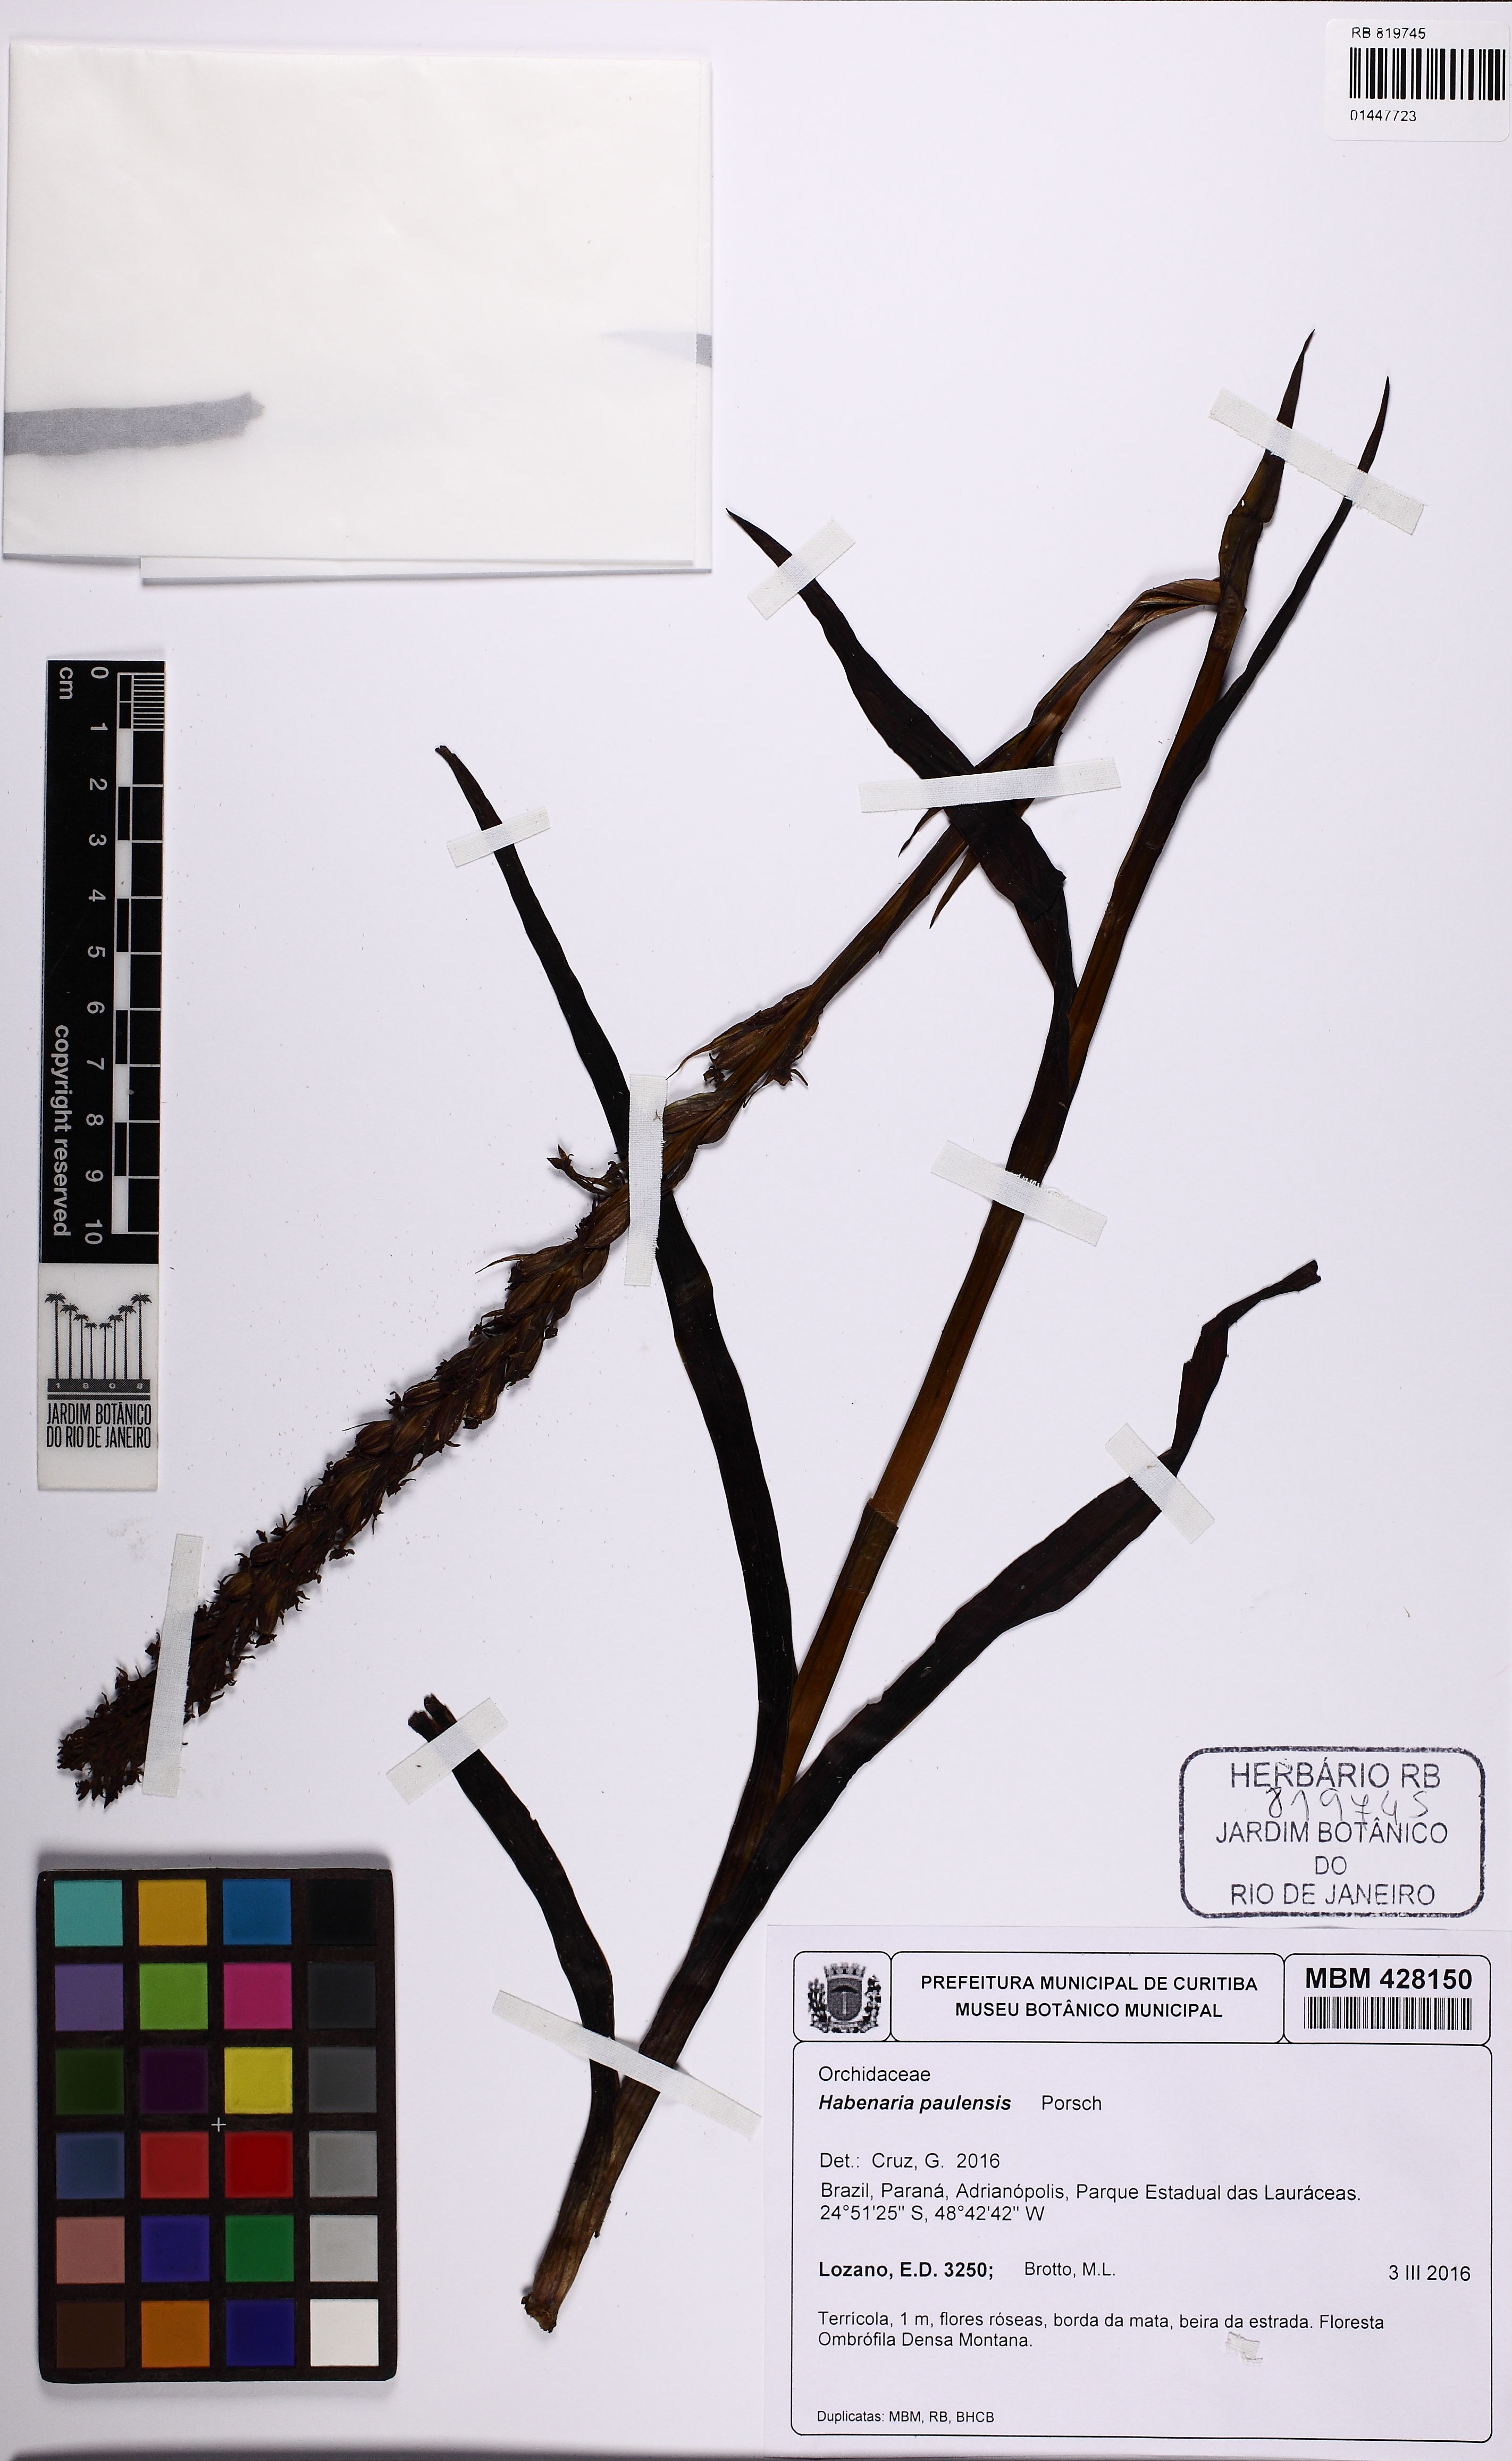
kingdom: Plantae
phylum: Tracheophyta
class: Liliopsida
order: Asparagales
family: Orchidaceae
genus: Habenaria
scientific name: Habenaria paulensis
